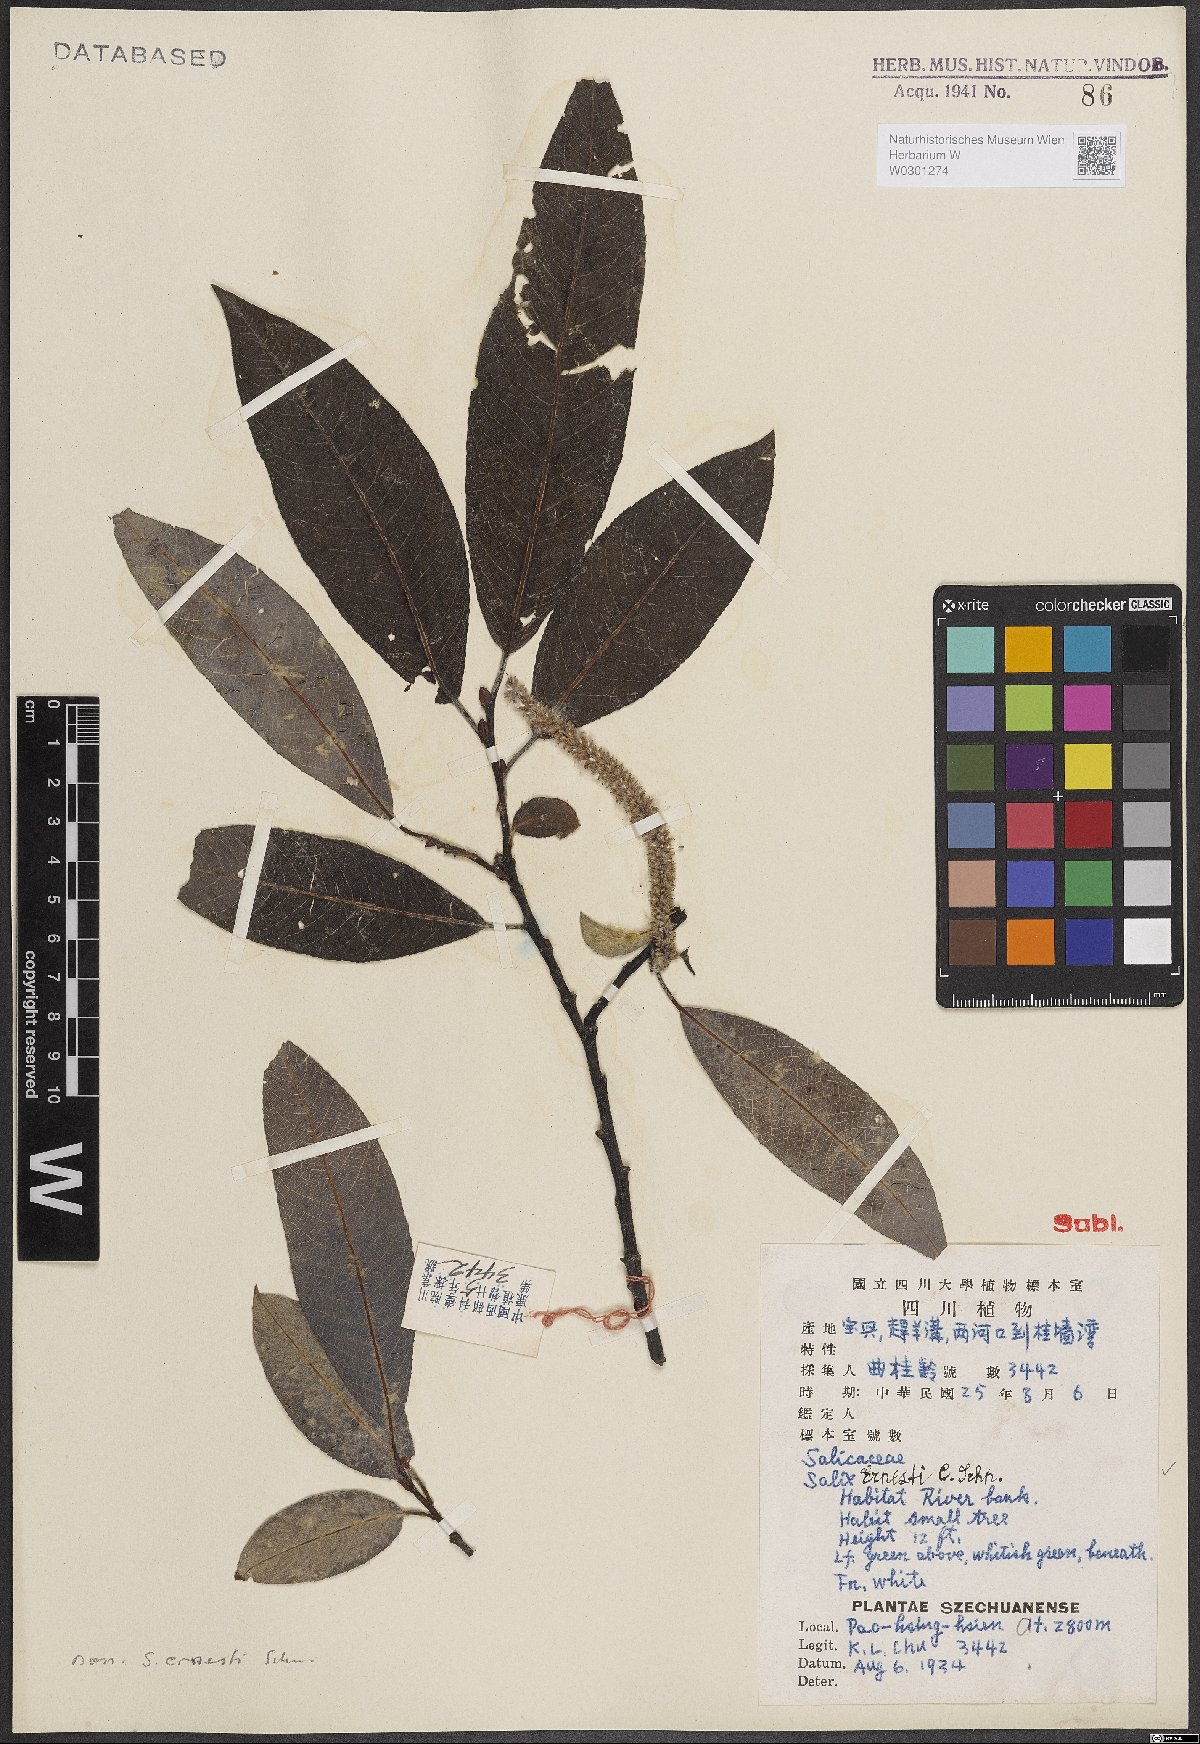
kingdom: Plantae
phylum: Tracheophyta
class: Magnoliopsida
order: Malpighiales
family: Salicaceae
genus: Salix
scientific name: Salix ernestii
